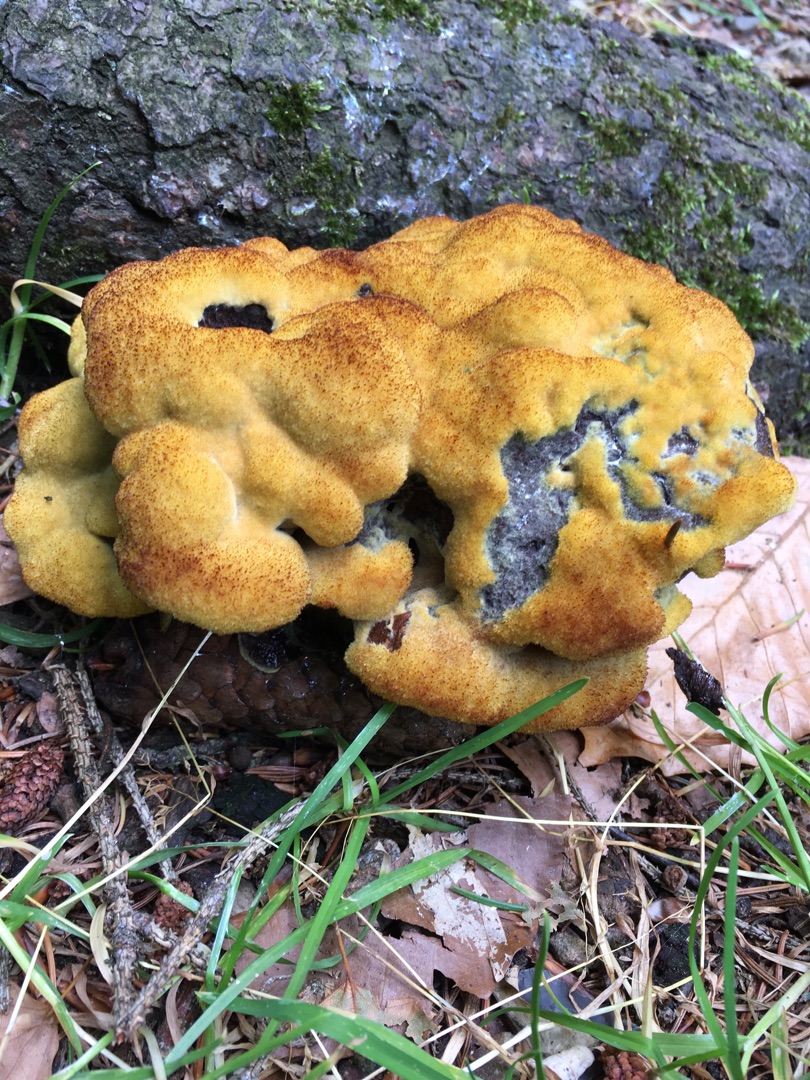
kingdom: Fungi
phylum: Basidiomycota
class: Agaricomycetes
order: Polyporales
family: Laetiporaceae
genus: Phaeolus
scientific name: Phaeolus schweinitzii
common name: Brunporesvamp
